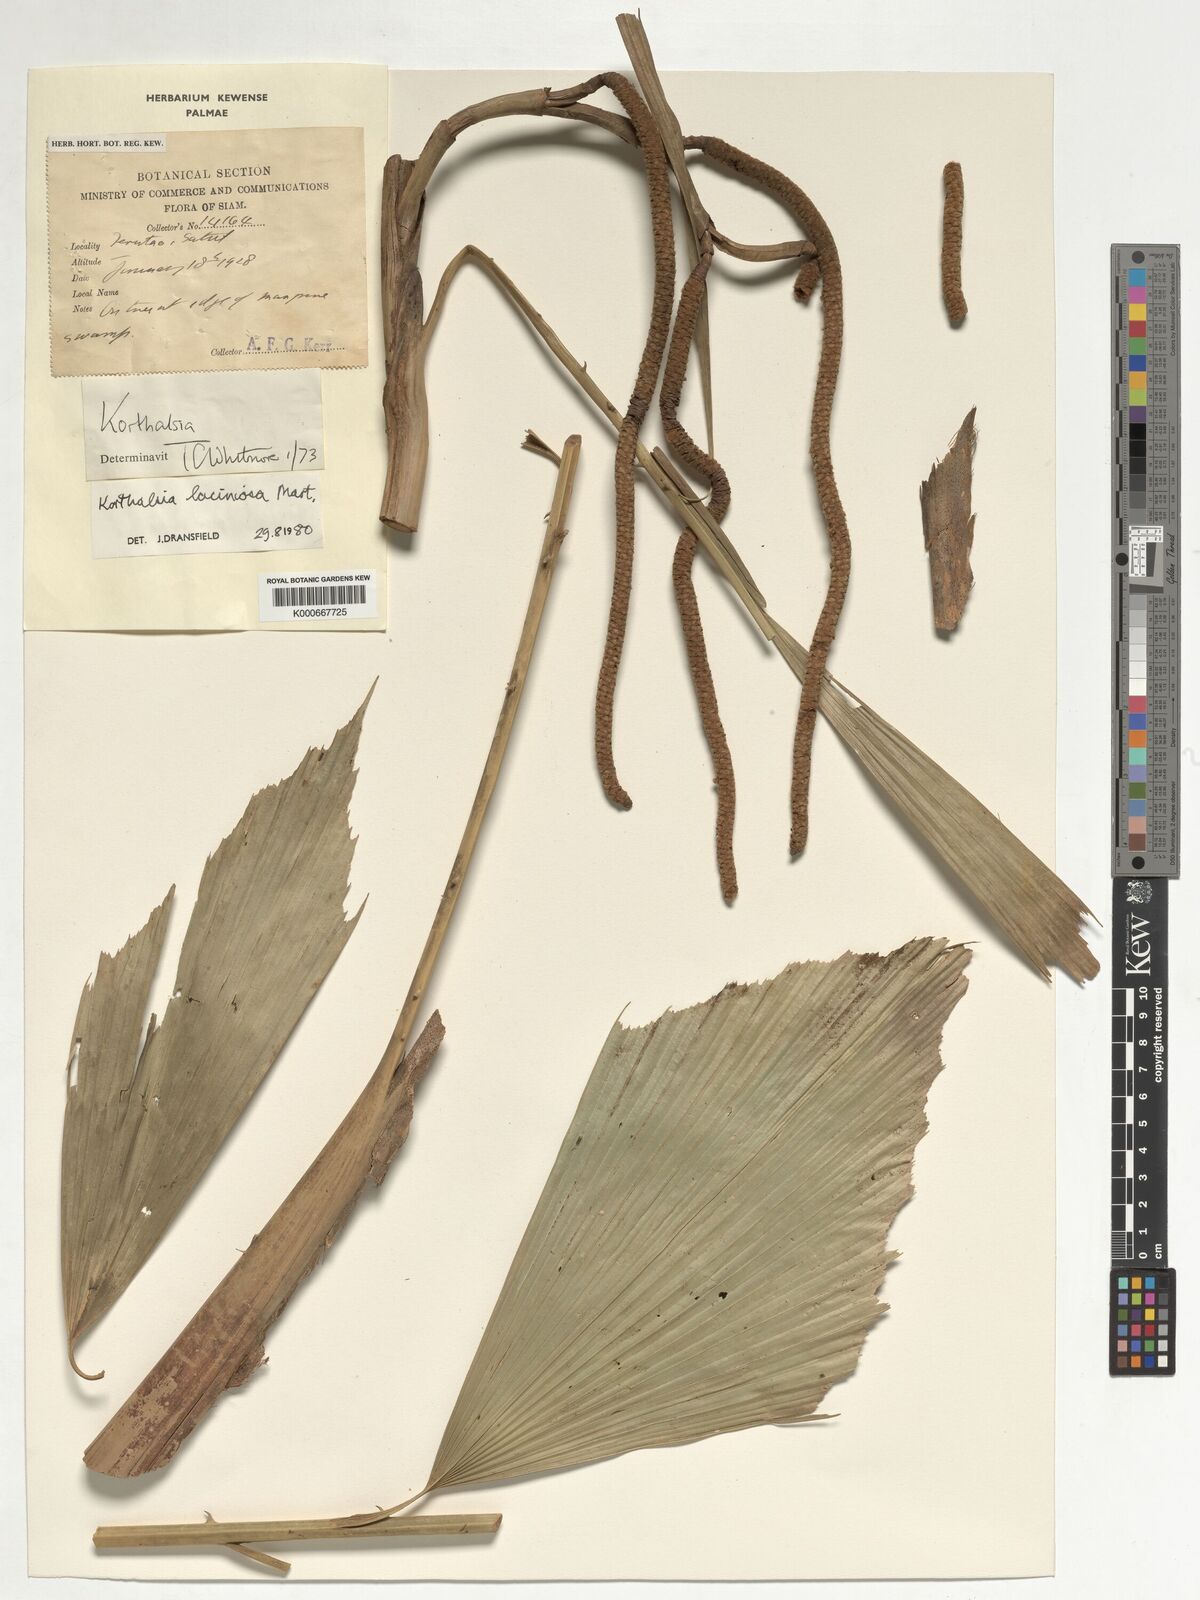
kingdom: Plantae
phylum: Tracheophyta
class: Liliopsida
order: Arecales
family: Arecaceae
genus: Korthalsia
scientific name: Korthalsia laciniosa
